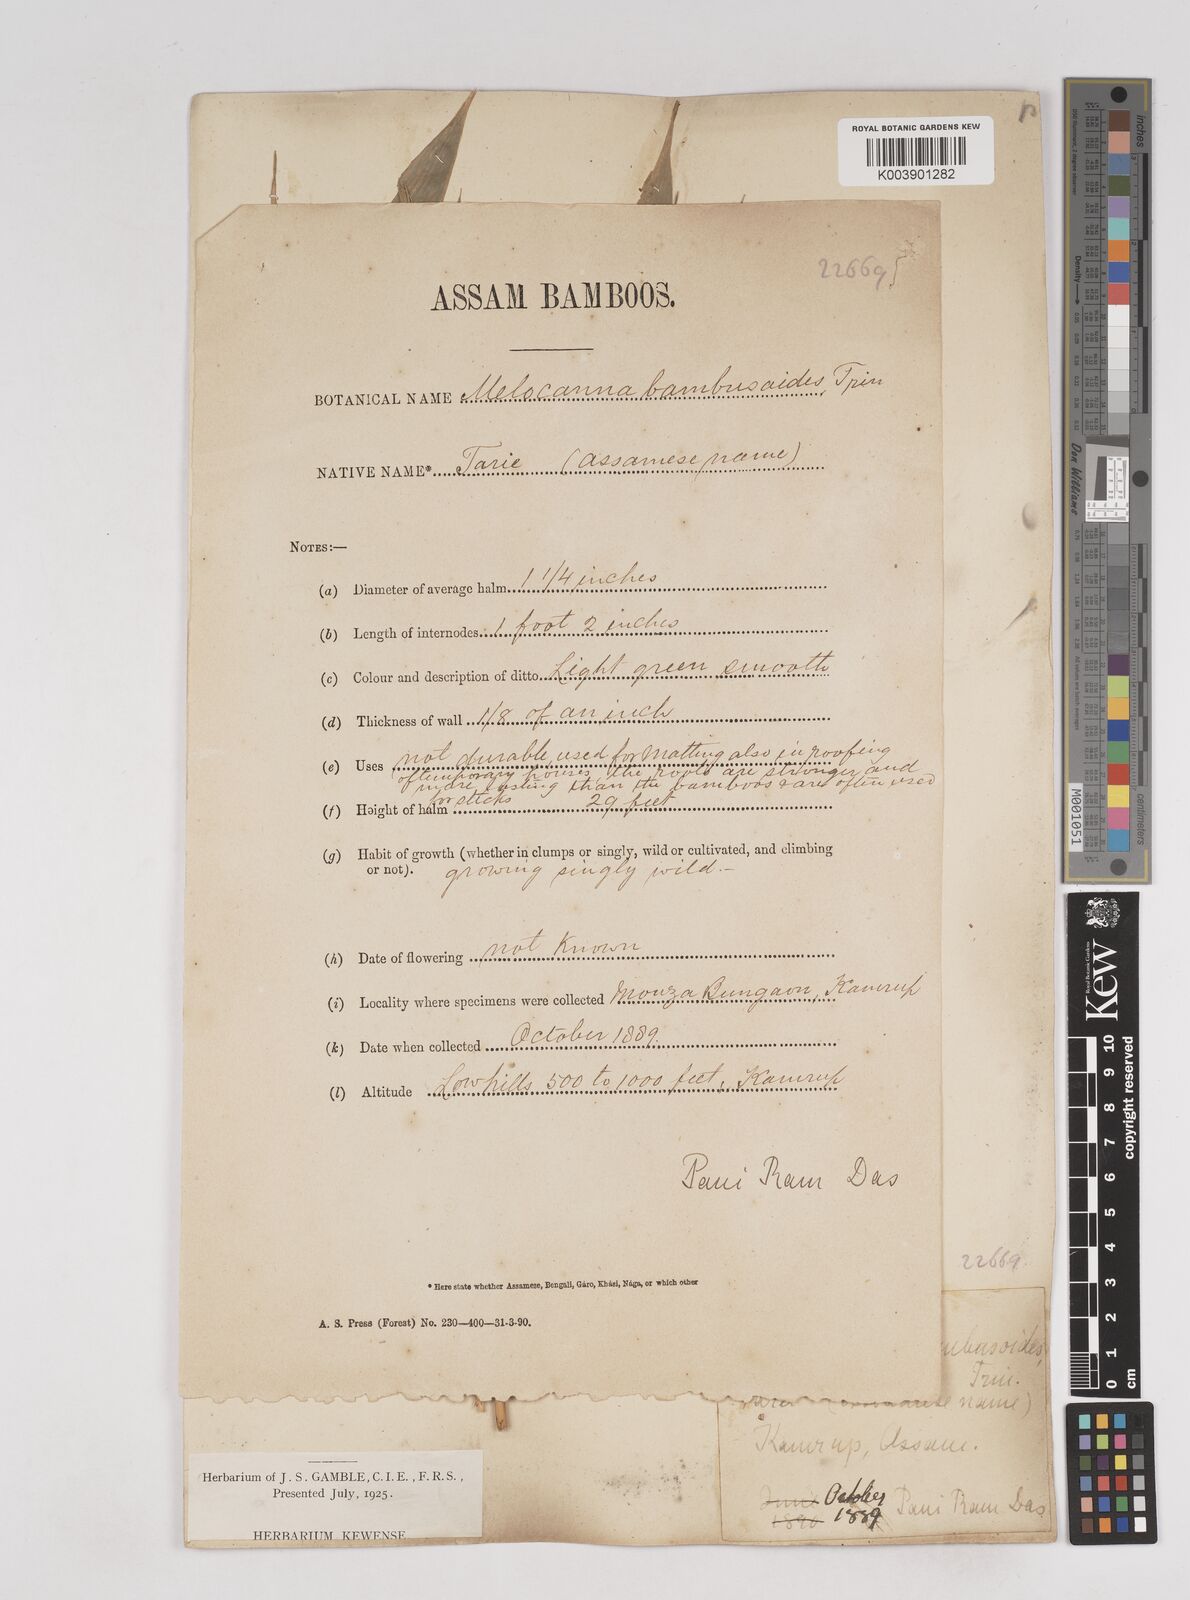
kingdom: Plantae
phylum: Tracheophyta
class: Liliopsida
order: Poales
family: Poaceae
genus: Melocanna
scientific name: Melocanna baccifera
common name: Berry bamboo
